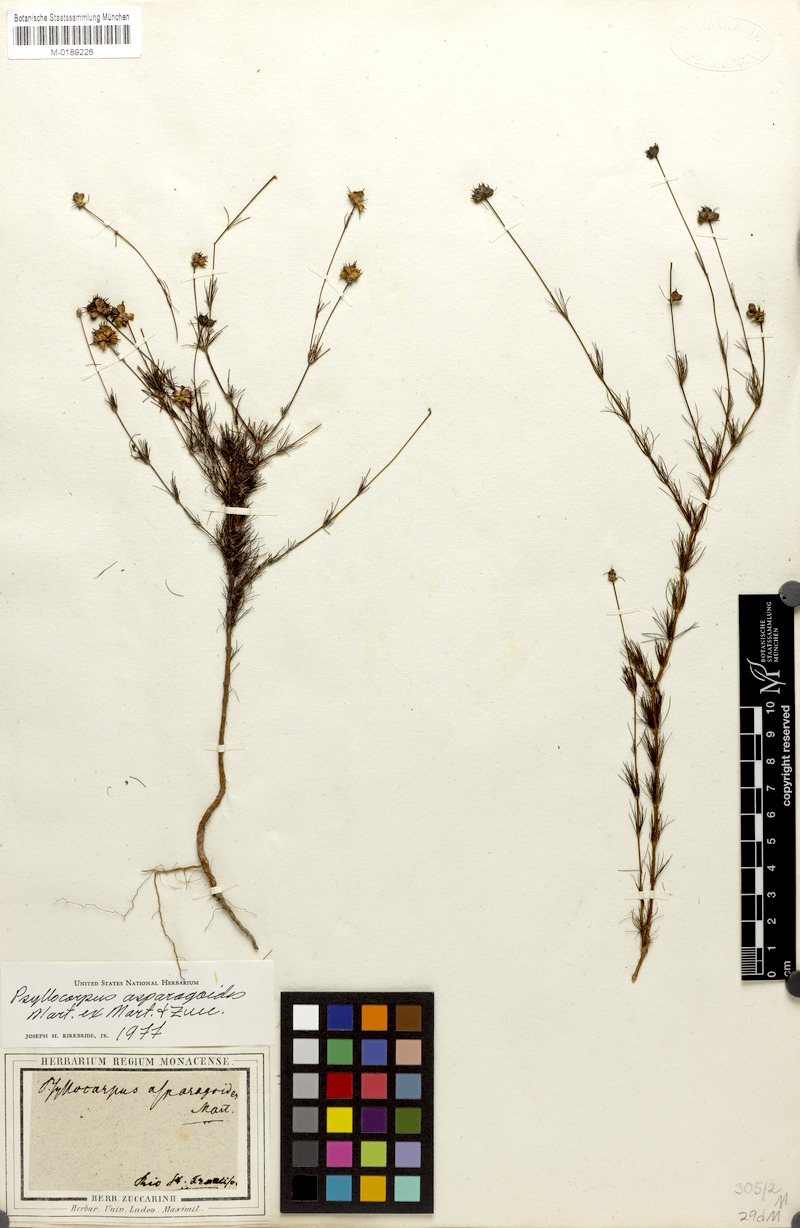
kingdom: Plantae
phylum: Tracheophyta
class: Magnoliopsida
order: Gentianales
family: Rubiaceae
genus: Psyllocarpus
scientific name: Psyllocarpus asparagoides
